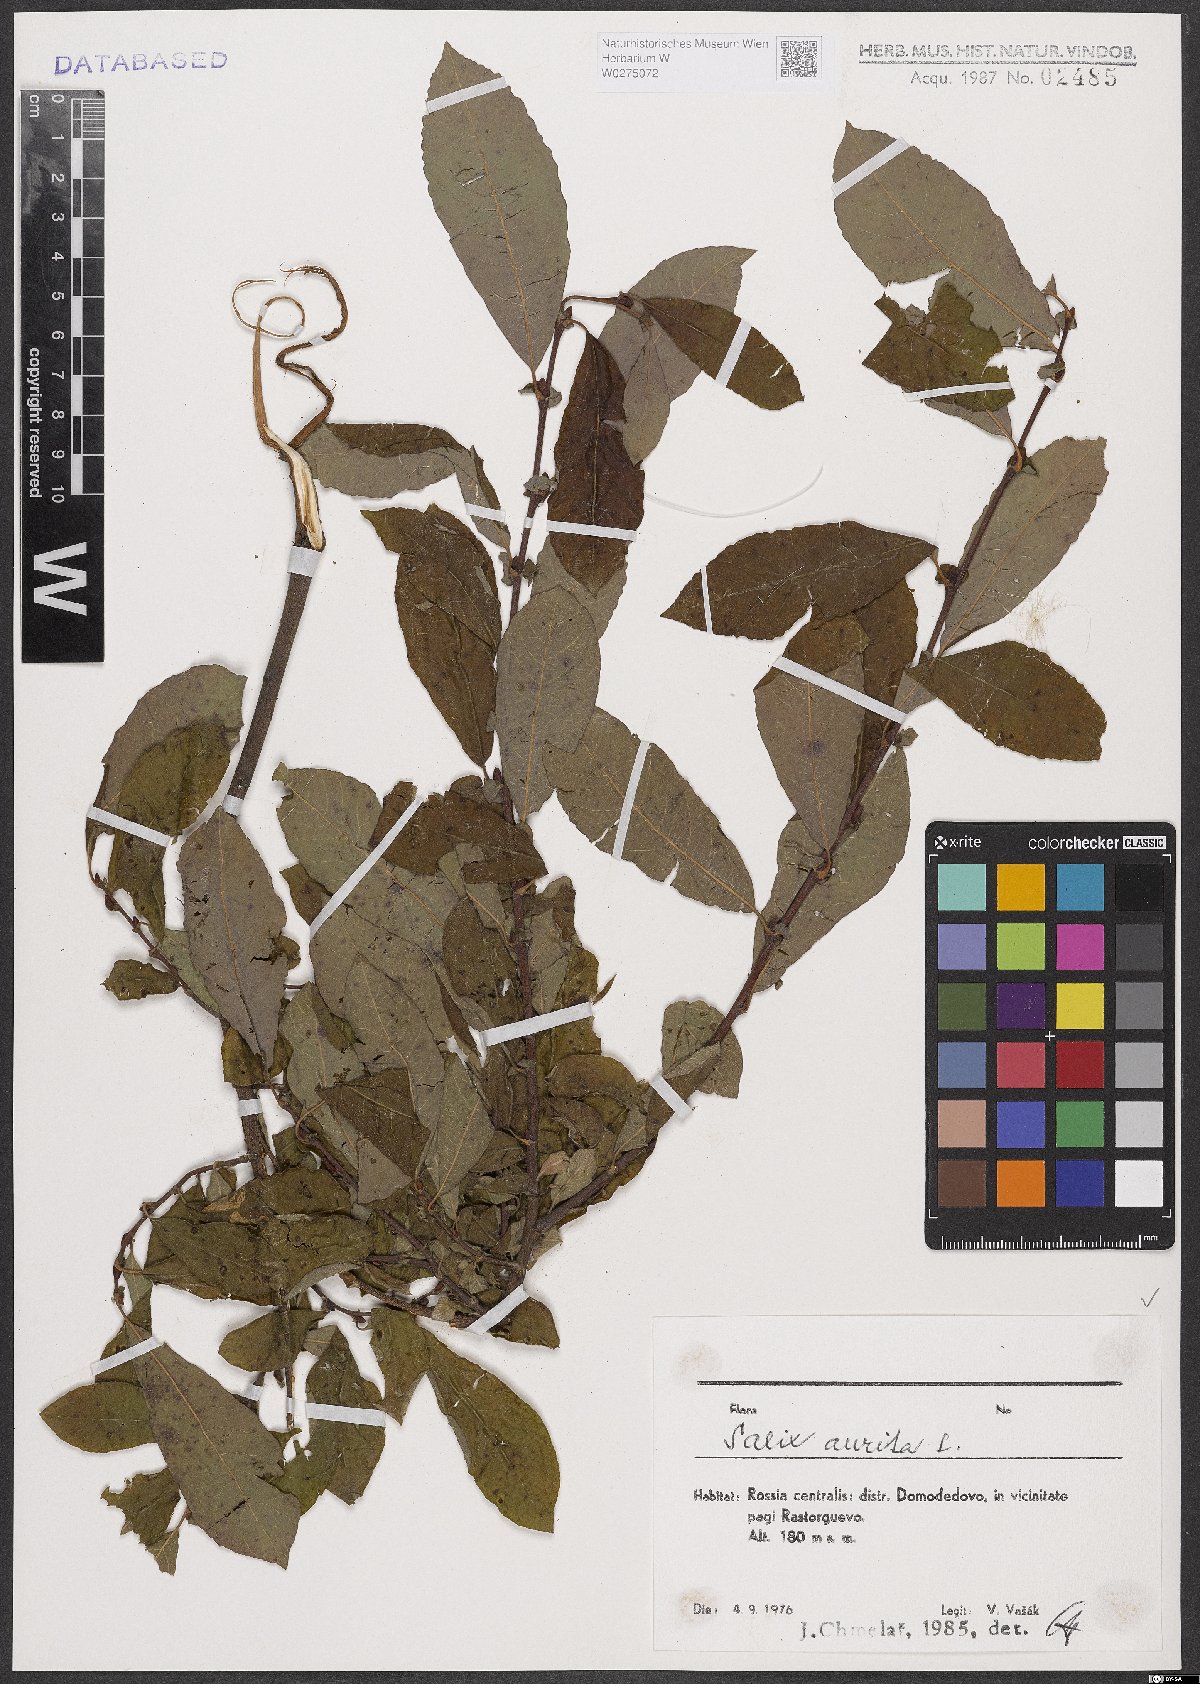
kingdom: Plantae
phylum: Tracheophyta
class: Magnoliopsida
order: Malpighiales
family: Salicaceae
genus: Salix
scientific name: Salix aurita
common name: Eared willow
